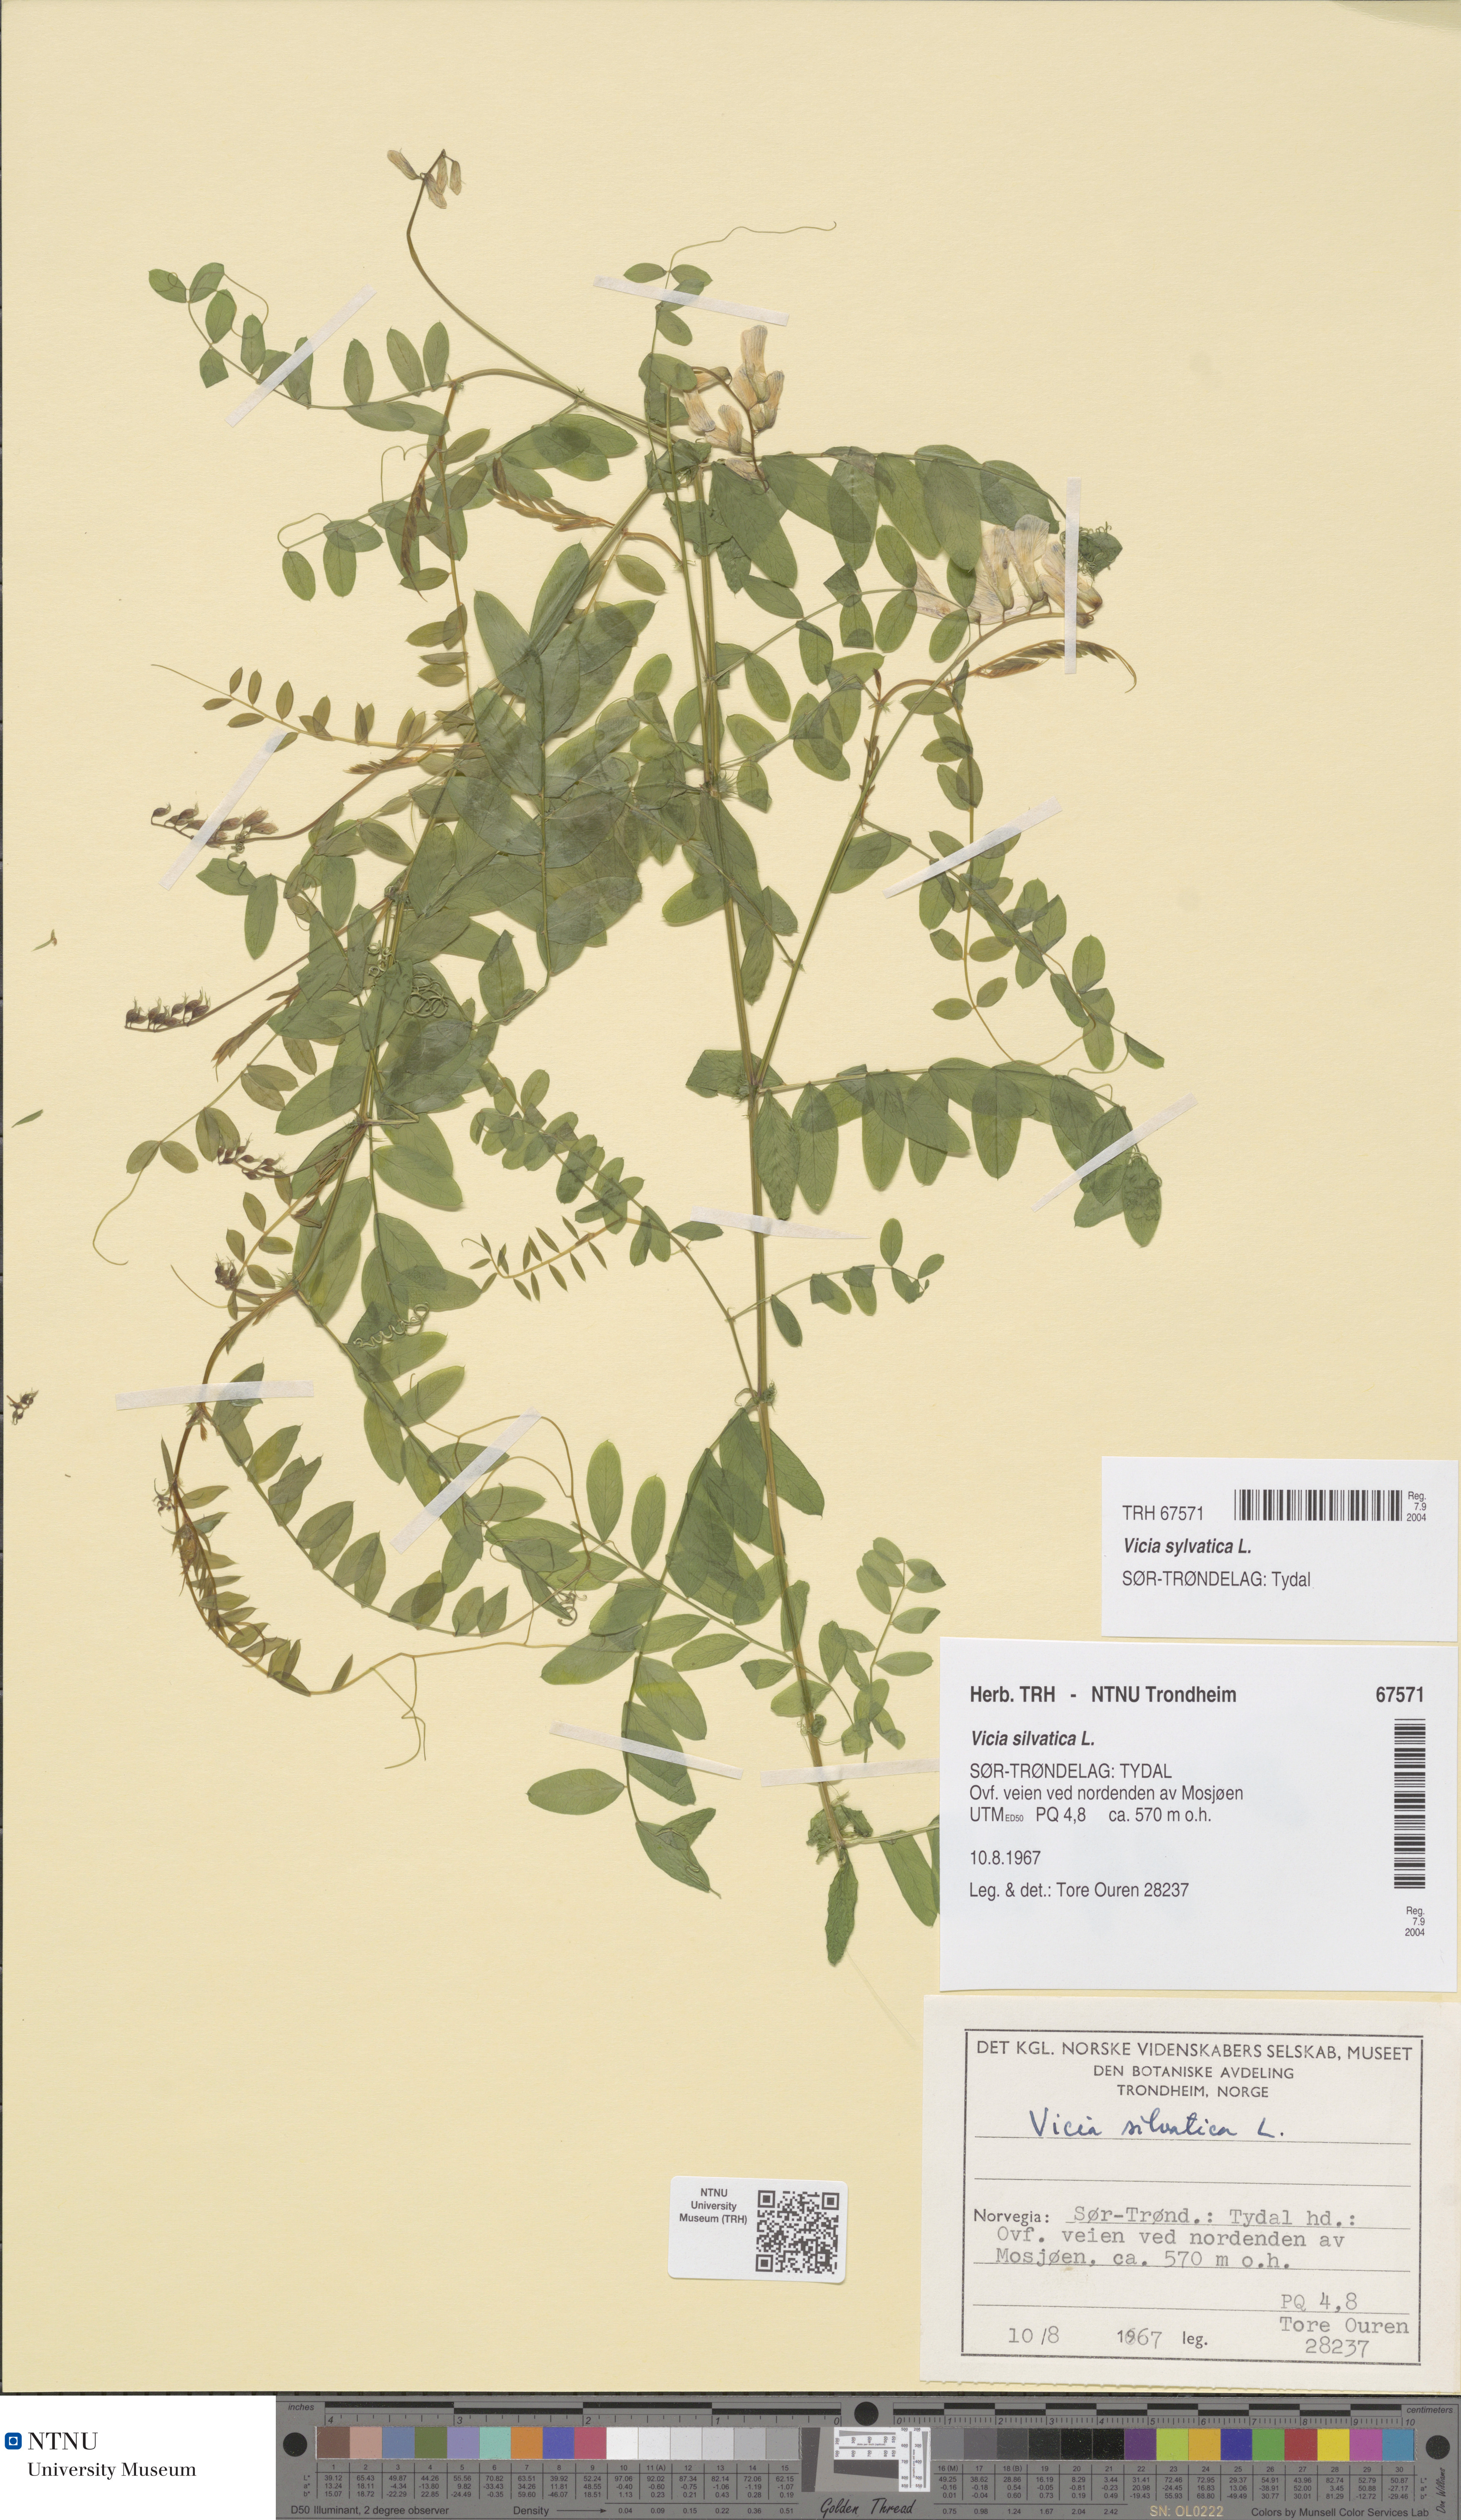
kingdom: Plantae
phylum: Tracheophyta
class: Magnoliopsida
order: Fabales
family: Fabaceae
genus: Vicia
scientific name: Vicia sylvatica
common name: Wood vetch
